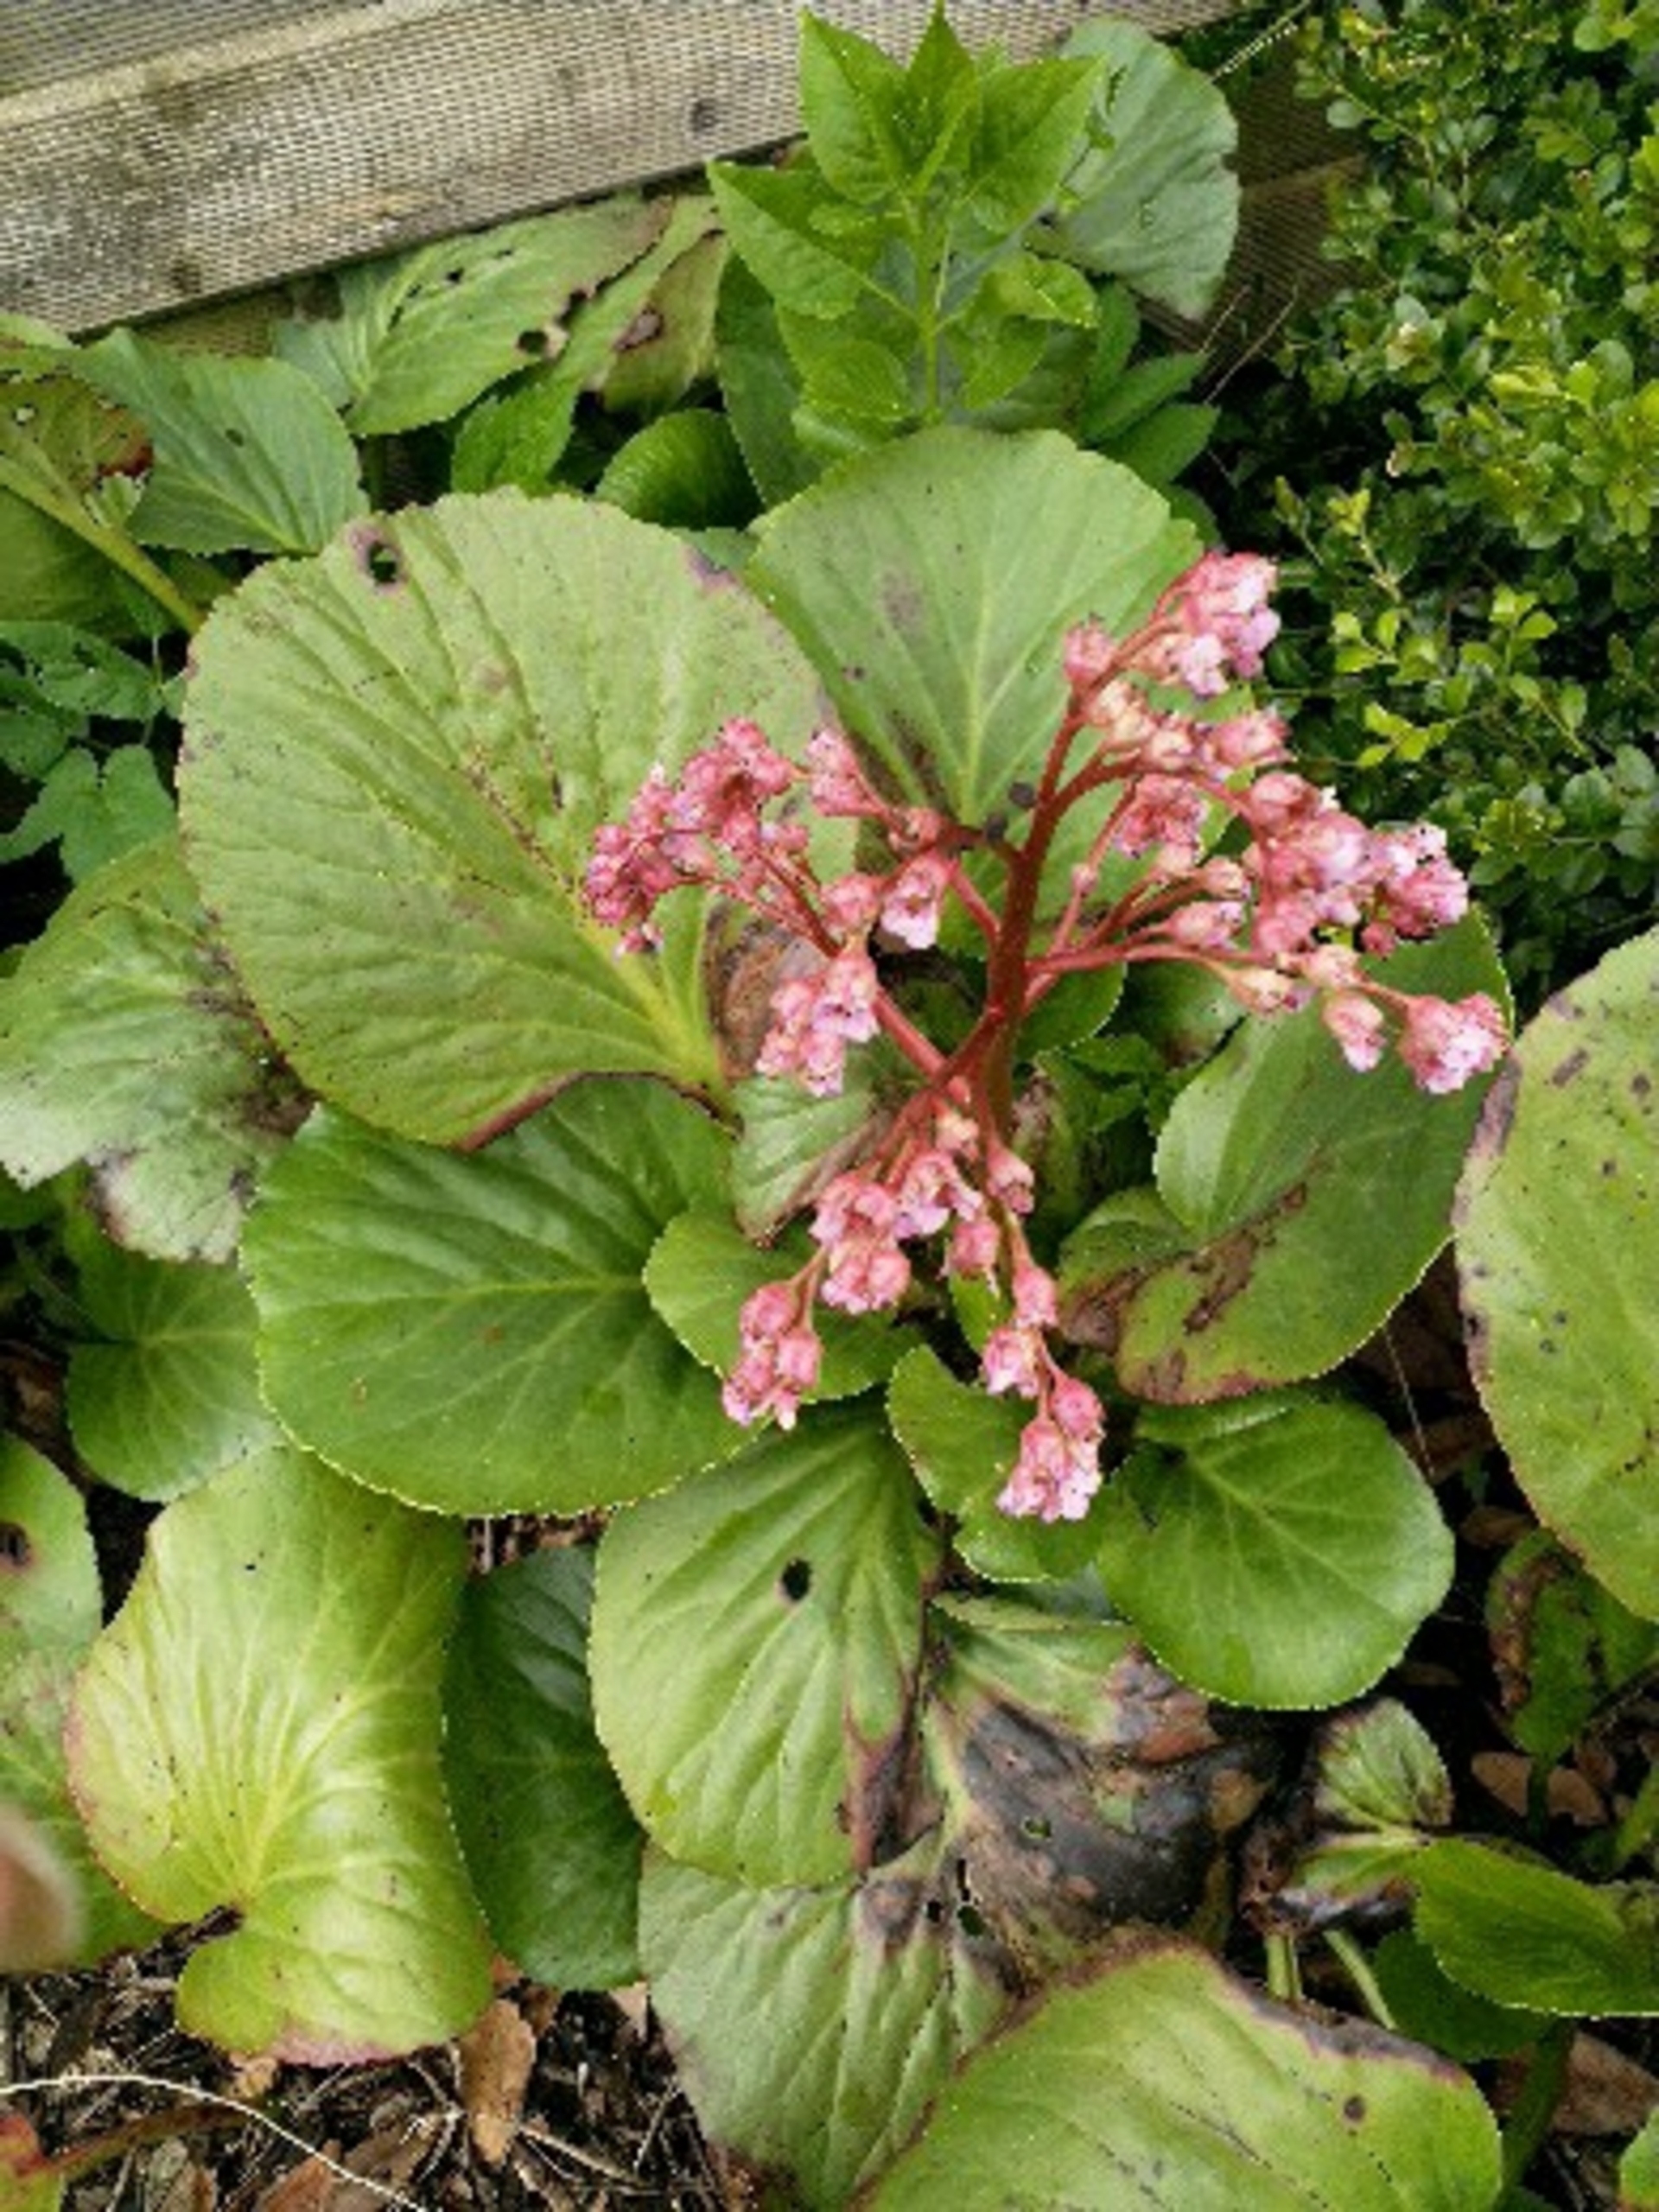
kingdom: Plantae
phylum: Tracheophyta
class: Magnoliopsida
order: Saxifragales
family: Saxifragaceae
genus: Bergenia
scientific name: Bergenia crassifolia
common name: Almindelig kæmpestenbræk
